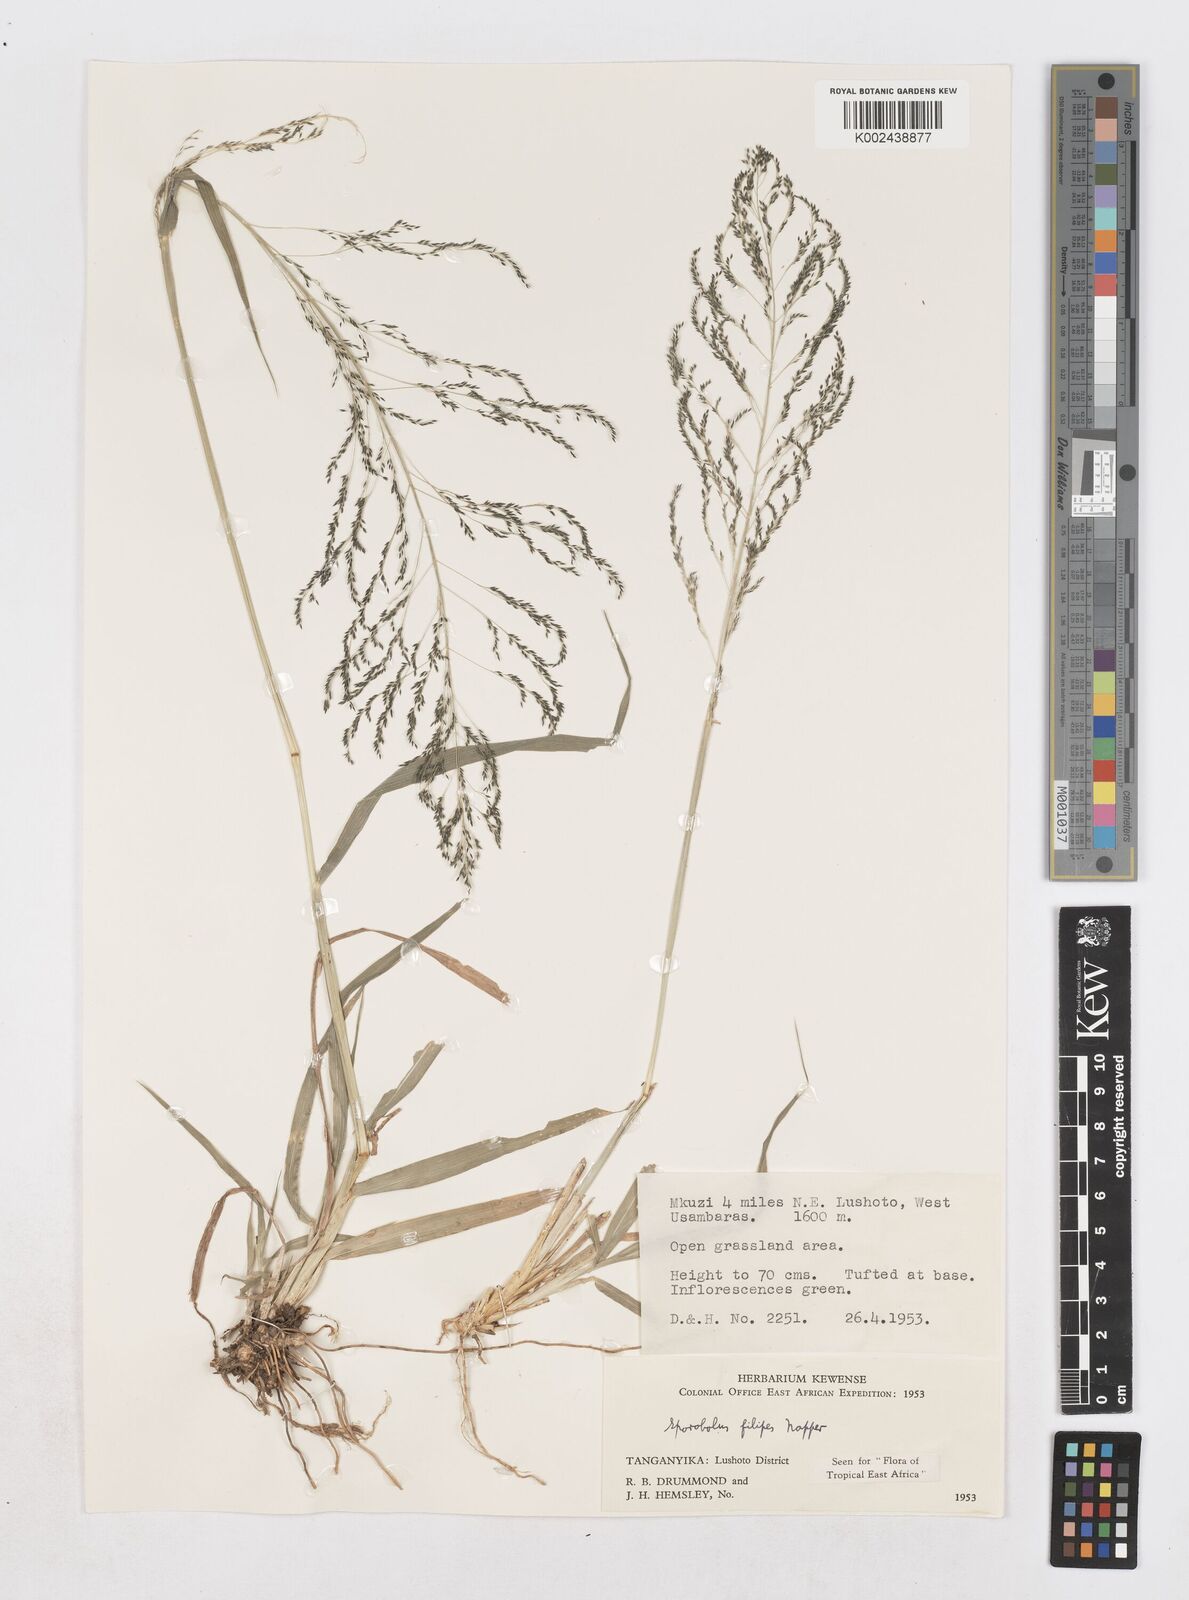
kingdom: Plantae
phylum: Tracheophyta
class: Liliopsida
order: Poales
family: Poaceae
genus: Sporobolus
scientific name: Sporobolus agrostoides
